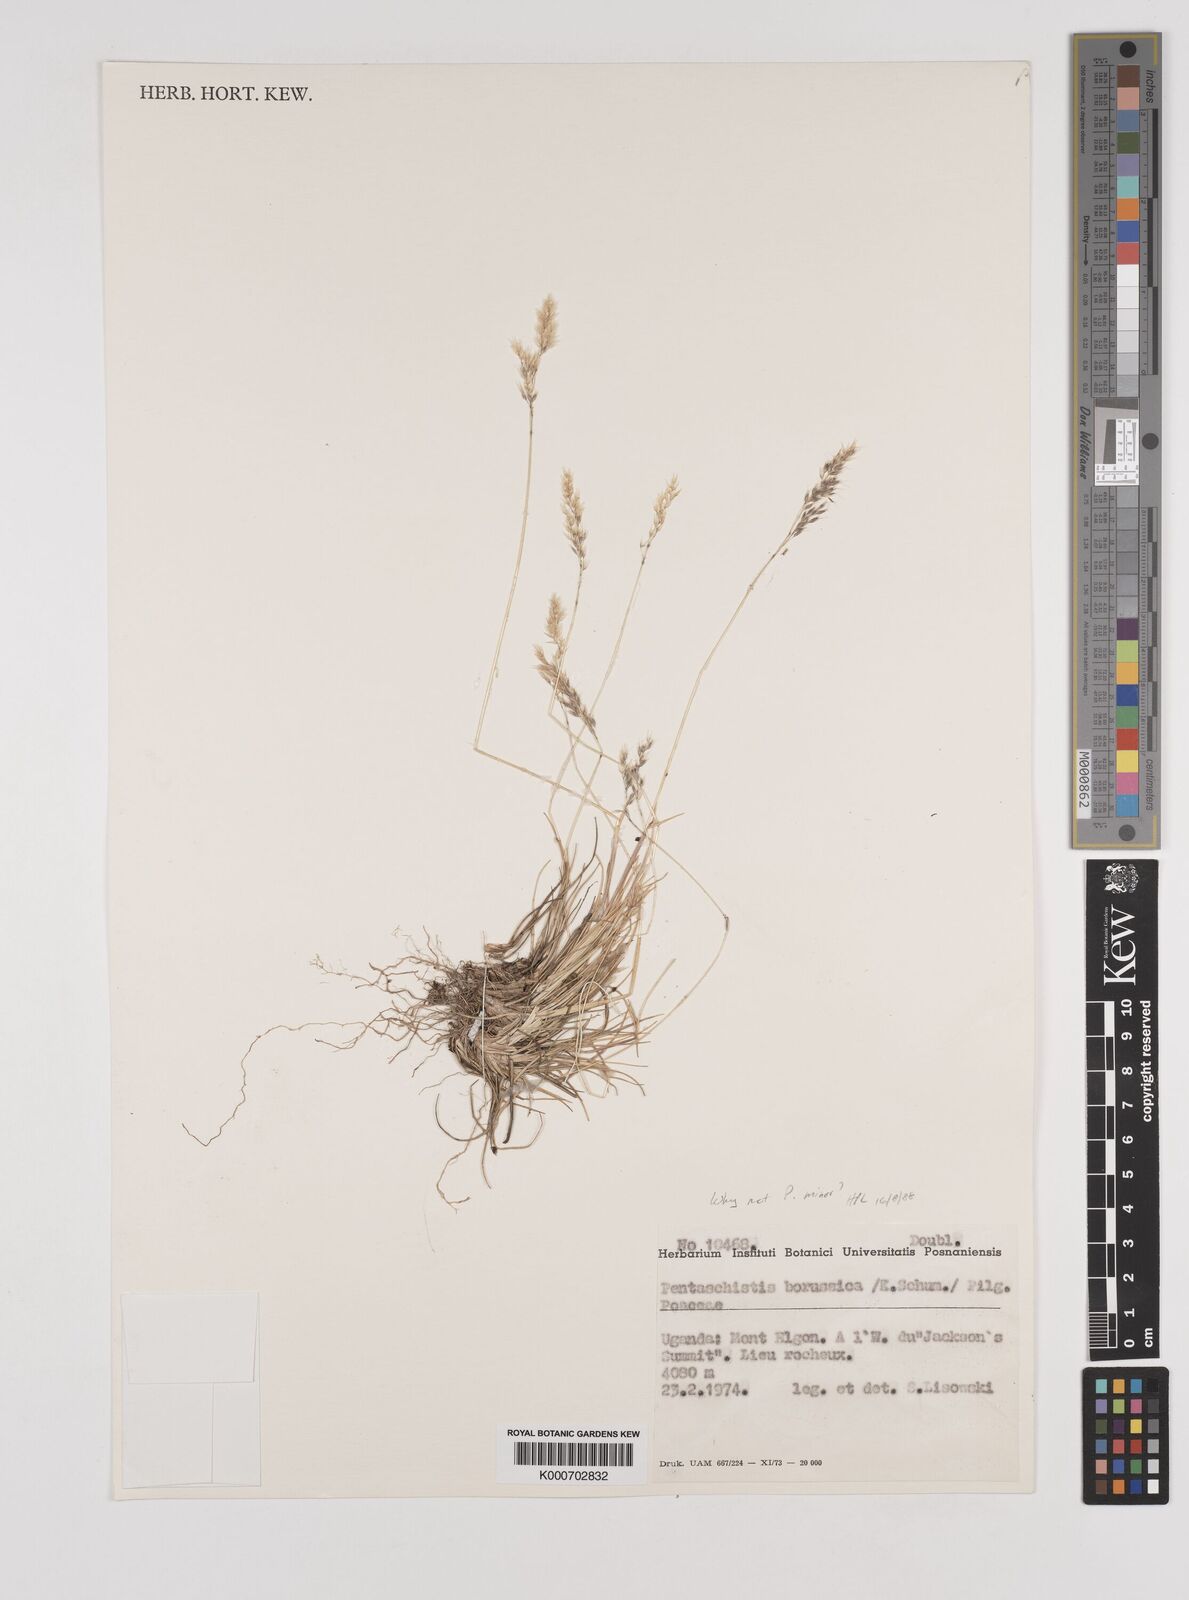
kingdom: Plantae
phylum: Tracheophyta
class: Liliopsida
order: Poales
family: Poaceae
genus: Pentameris
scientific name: Pentameris minor
